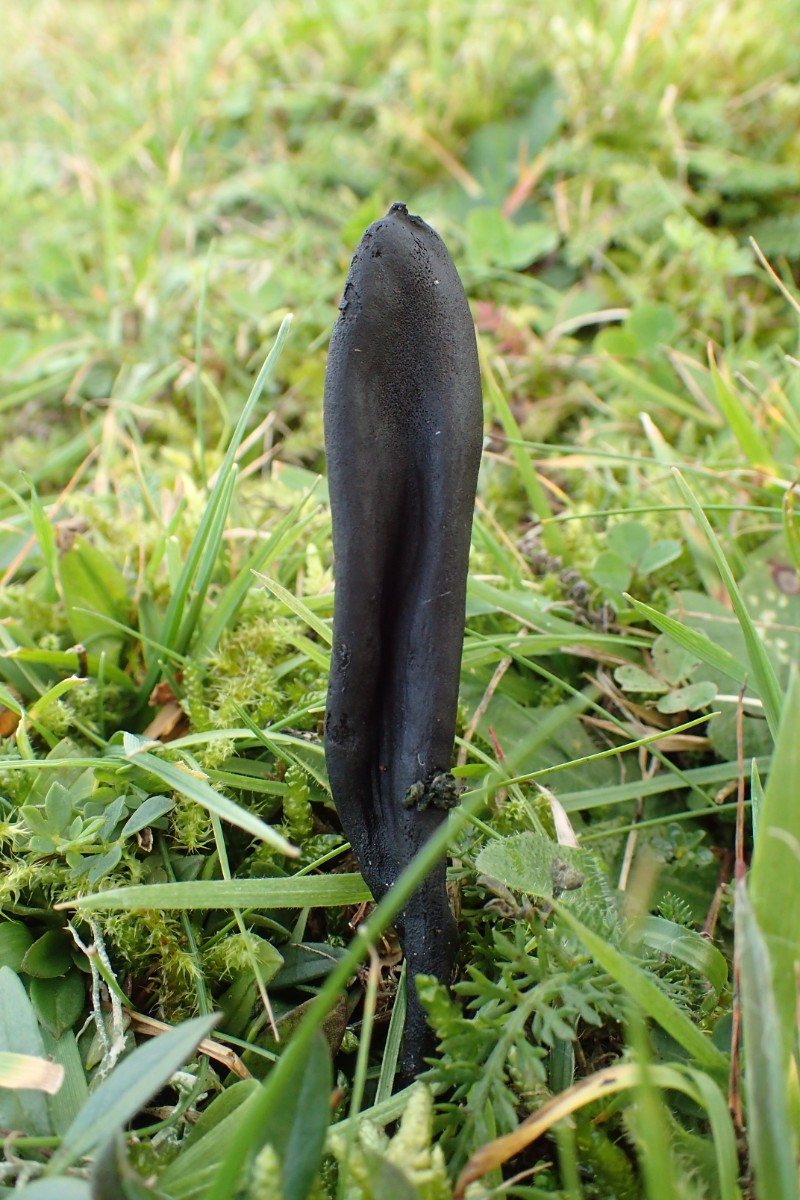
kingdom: Fungi
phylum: Ascomycota
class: Geoglossomycetes
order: Geoglossales
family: Geoglossaceae
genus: Geoglossum
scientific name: Geoglossum cookeianum
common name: bred jordtunge
